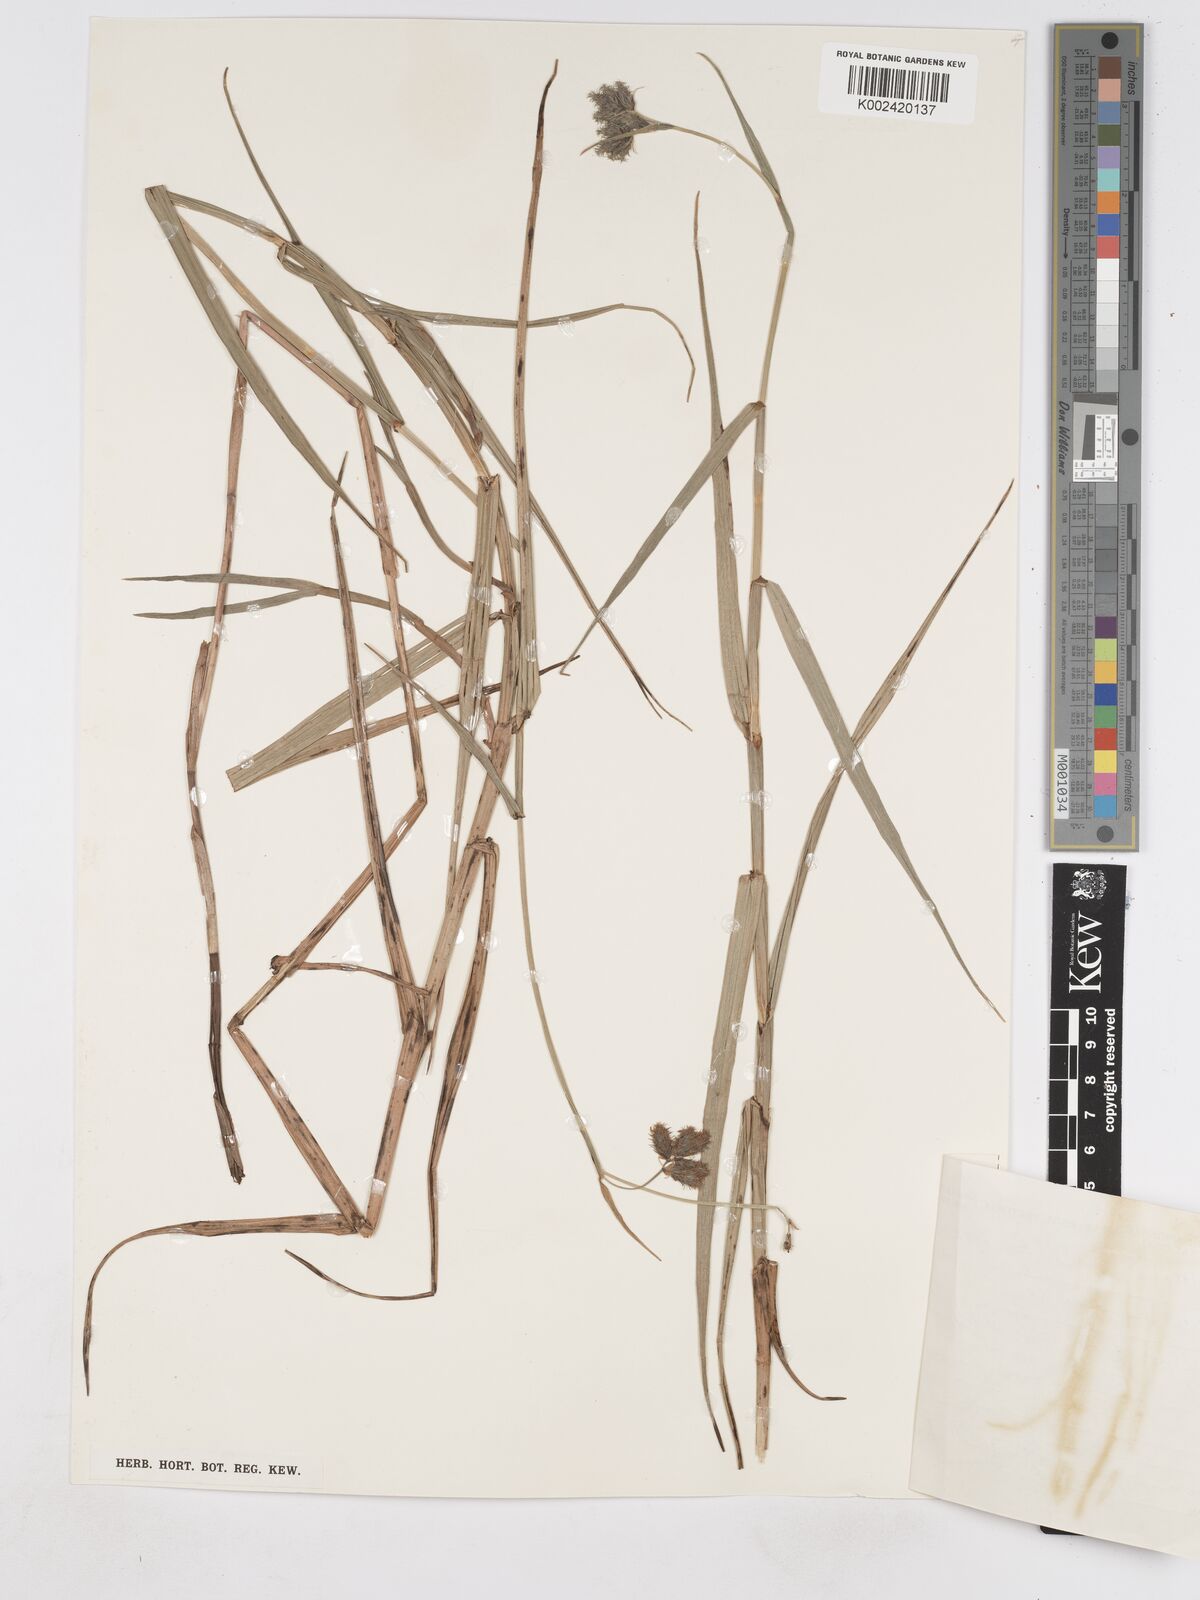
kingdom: Plantae
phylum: Tracheophyta
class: Liliopsida
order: Poales
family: Cyperaceae
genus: Fuirena
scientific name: Fuirena pubescens
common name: Hairy sedge
